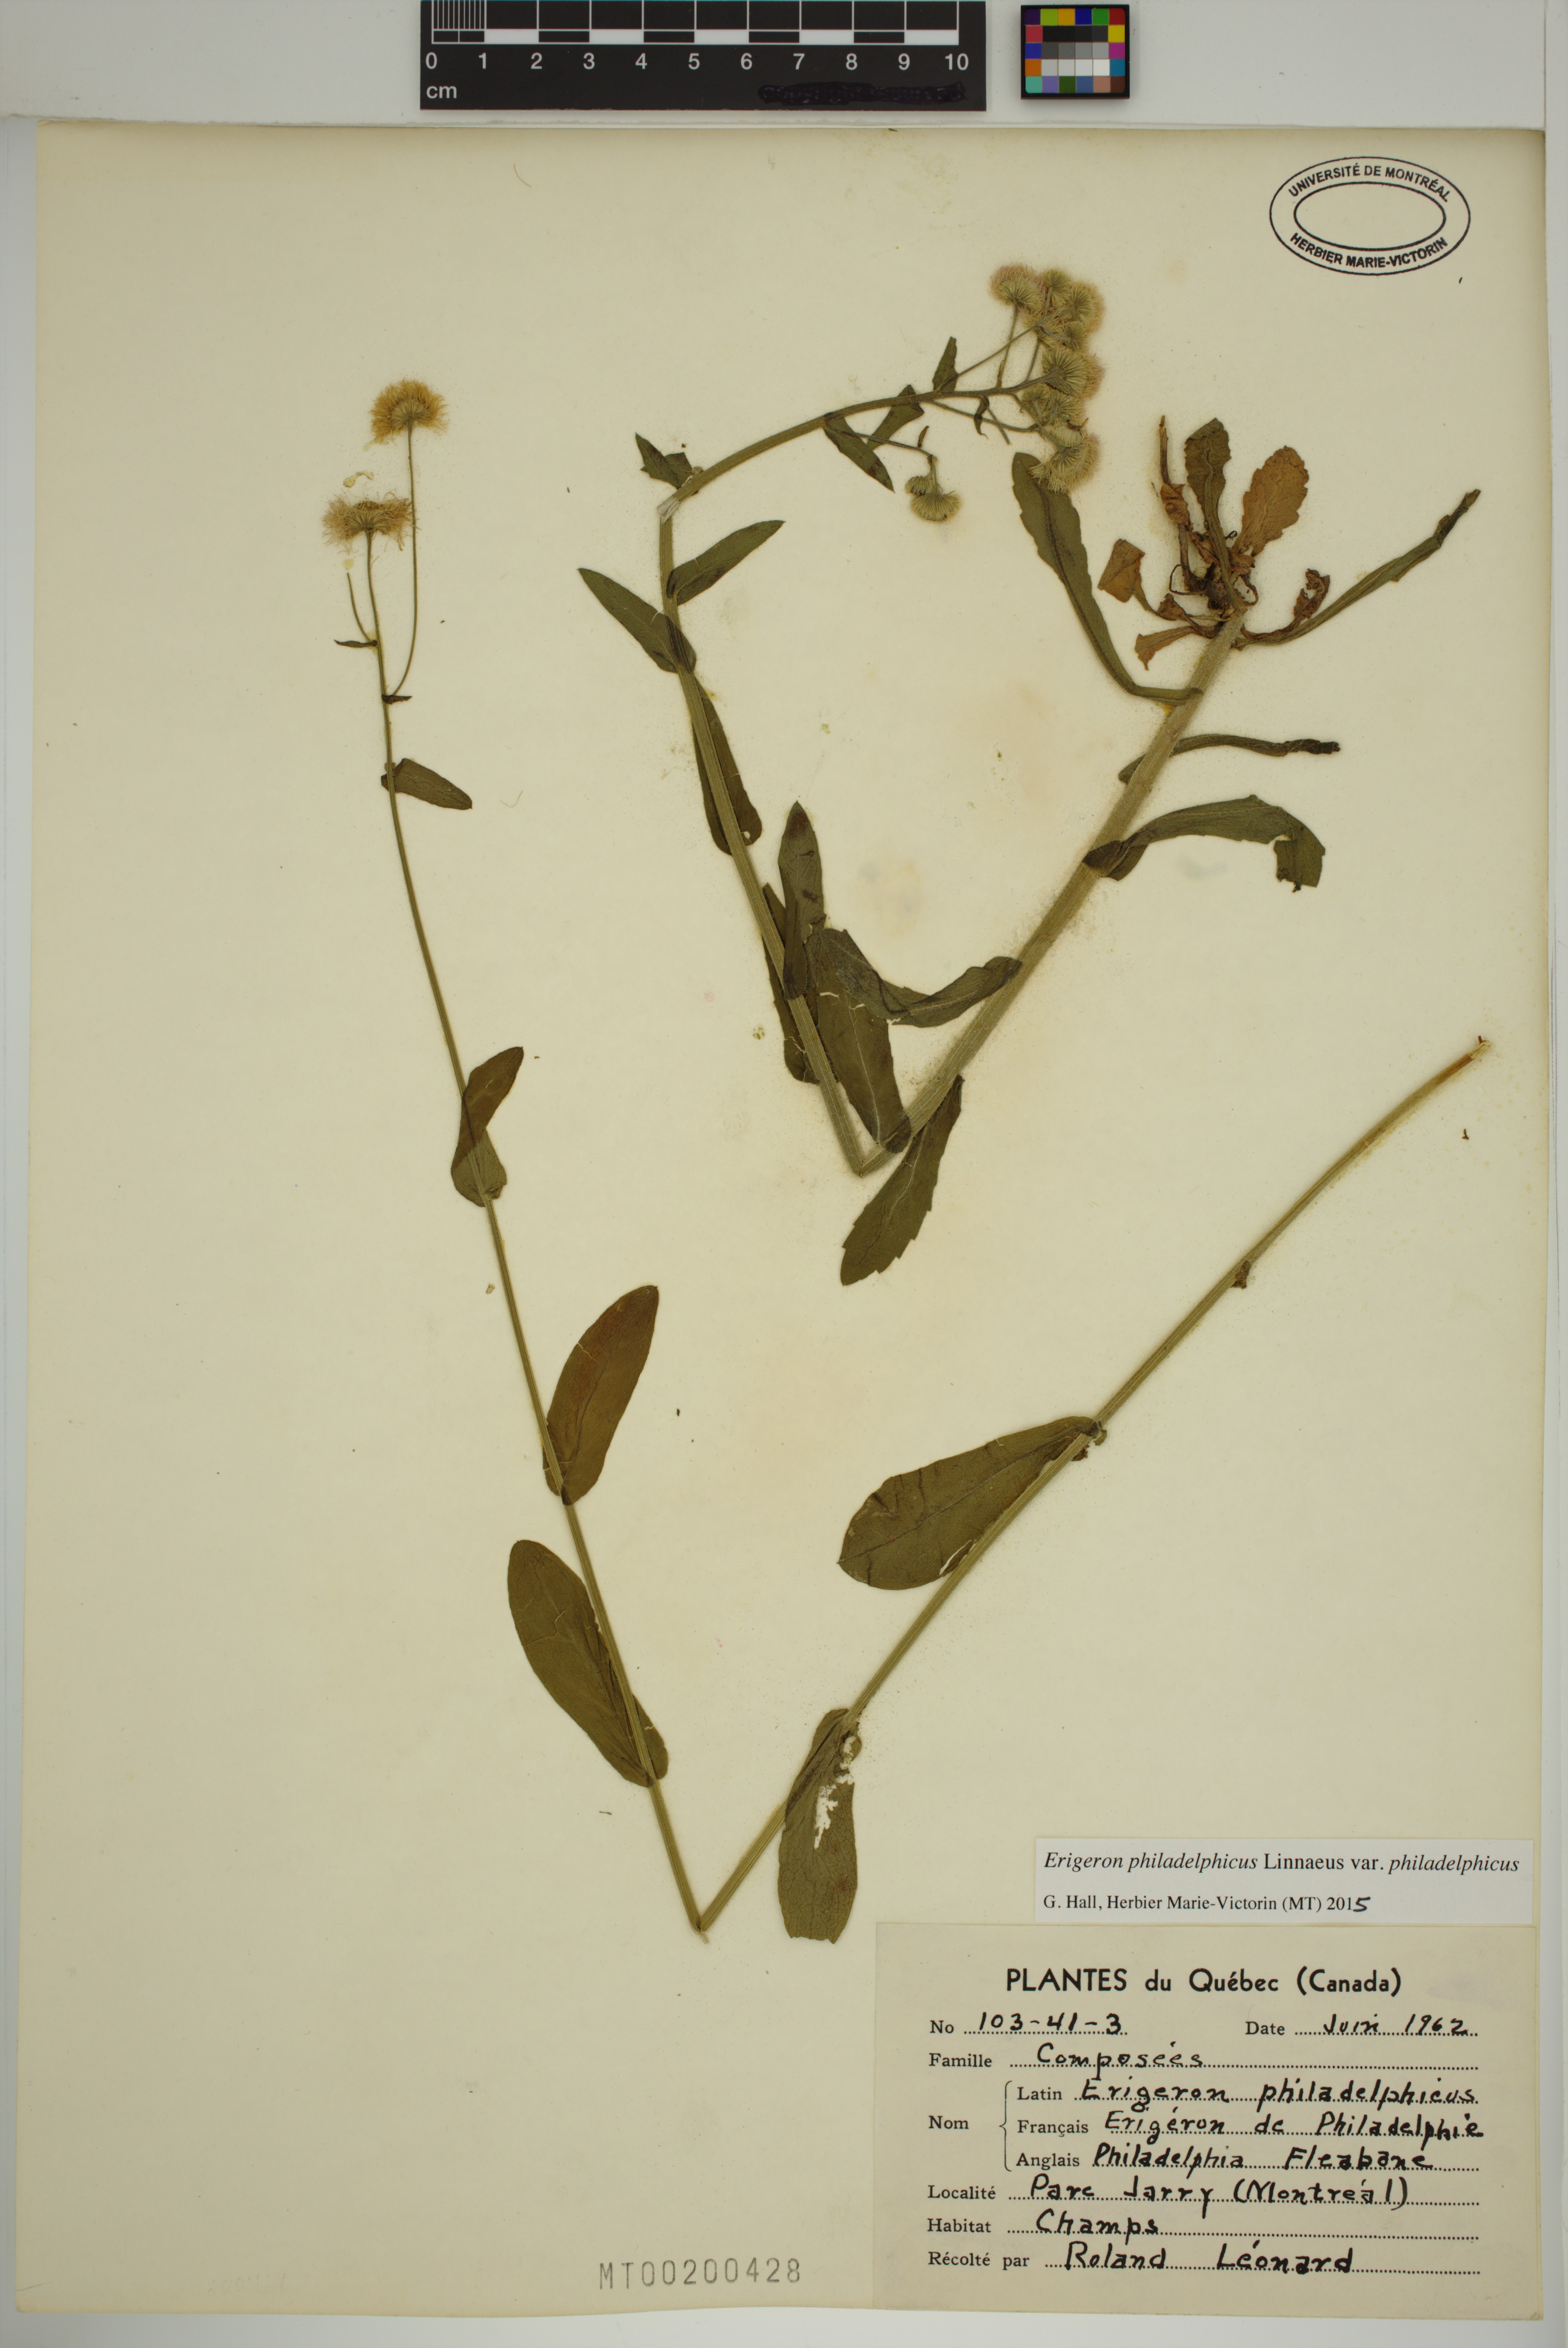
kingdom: Plantae
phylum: Tracheophyta
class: Magnoliopsida
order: Asterales
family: Asteraceae
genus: Erigeron
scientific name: Erigeron philadelphicus
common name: Robin's-plantain
